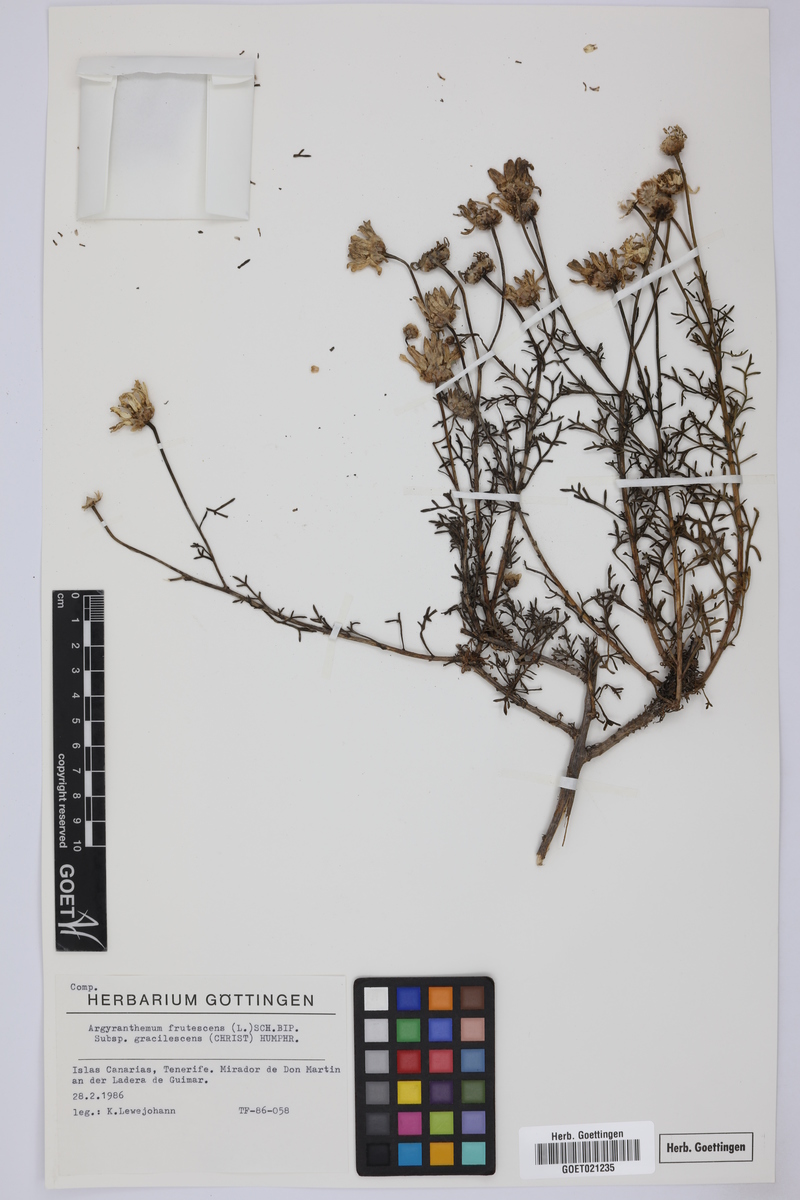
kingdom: Plantae
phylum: Tracheophyta
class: Magnoliopsida
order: Asterales
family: Asteraceae
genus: Argyranthemum
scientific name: Argyranthemum frutescens
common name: Paris daisy
